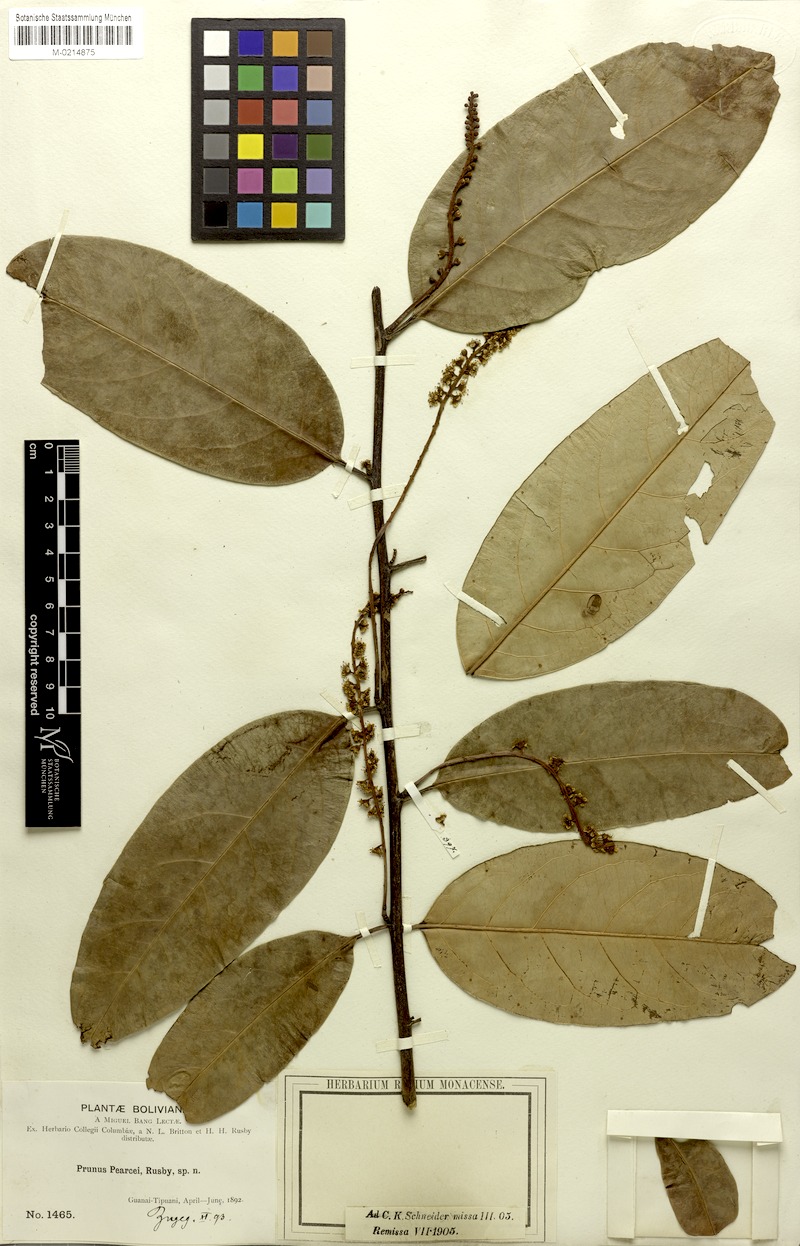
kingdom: Plantae
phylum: Tracheophyta
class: Magnoliopsida
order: Rosales
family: Rosaceae
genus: Prunus
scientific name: Prunus pearcei
